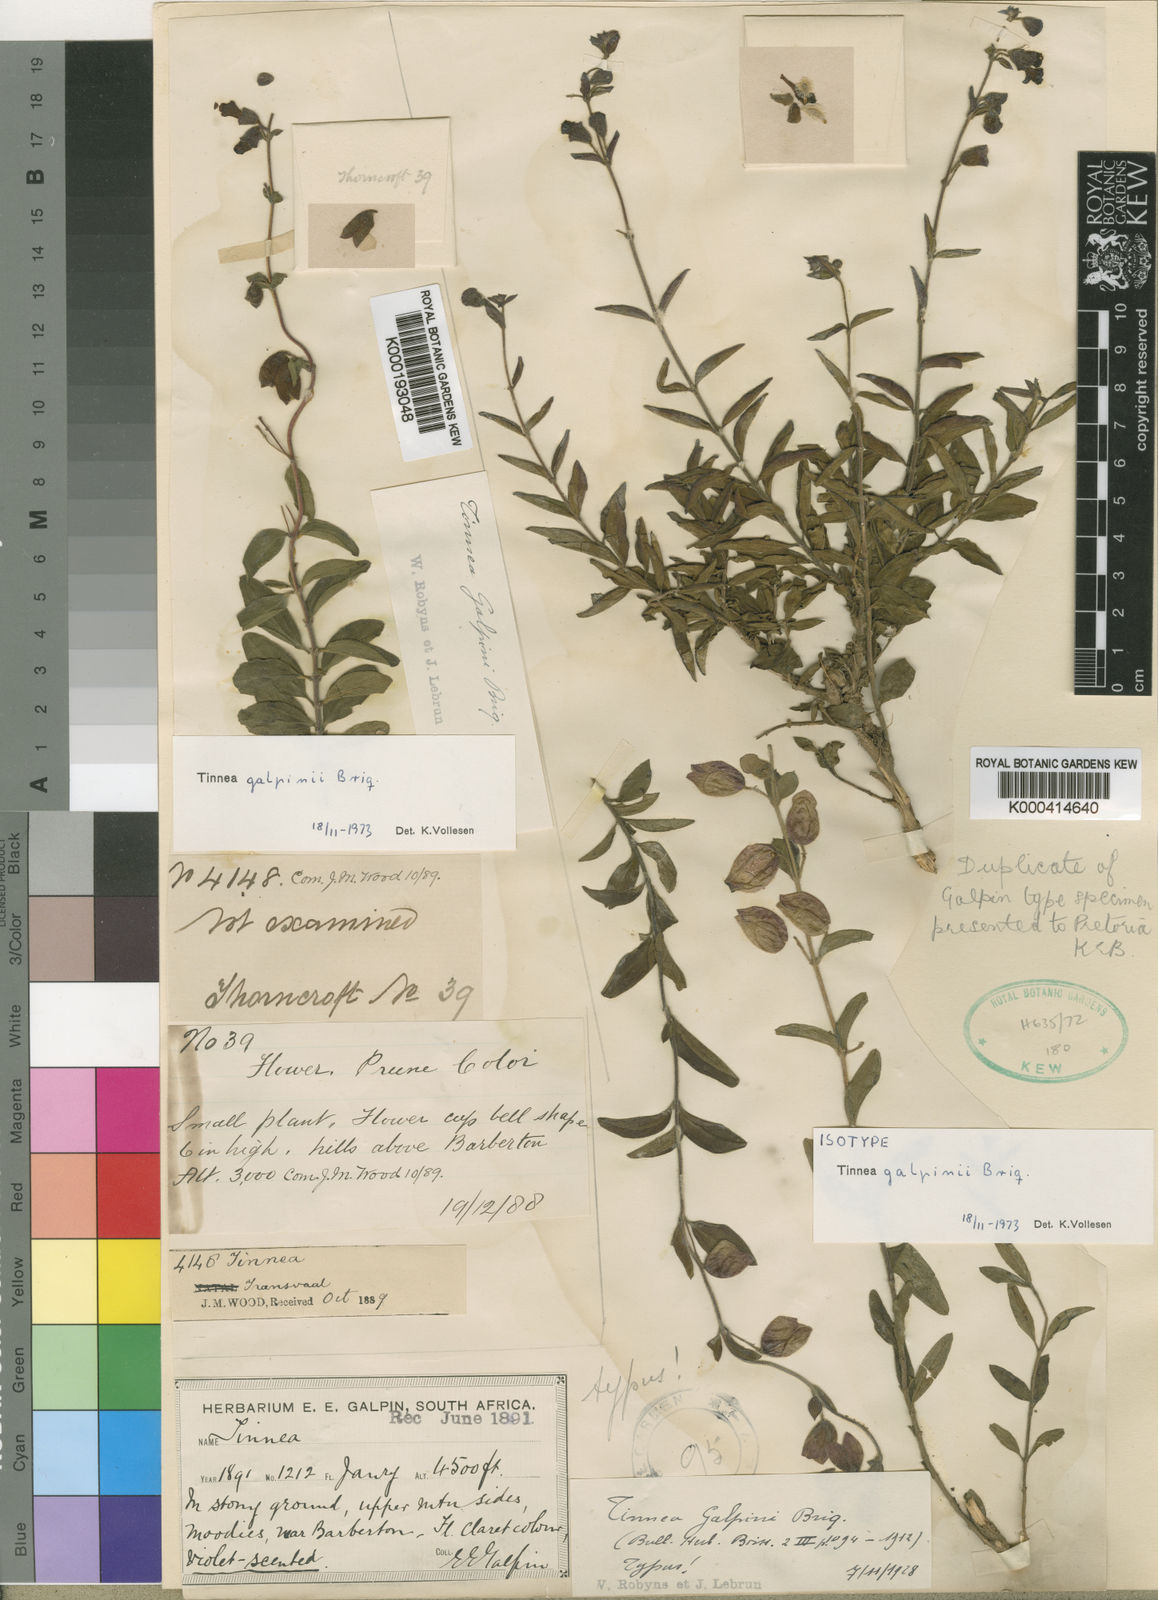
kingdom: Plantae
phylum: Tracheophyta
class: Magnoliopsida
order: Lamiales
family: Lamiaceae
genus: Tinnea
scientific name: Tinnea galpinii
